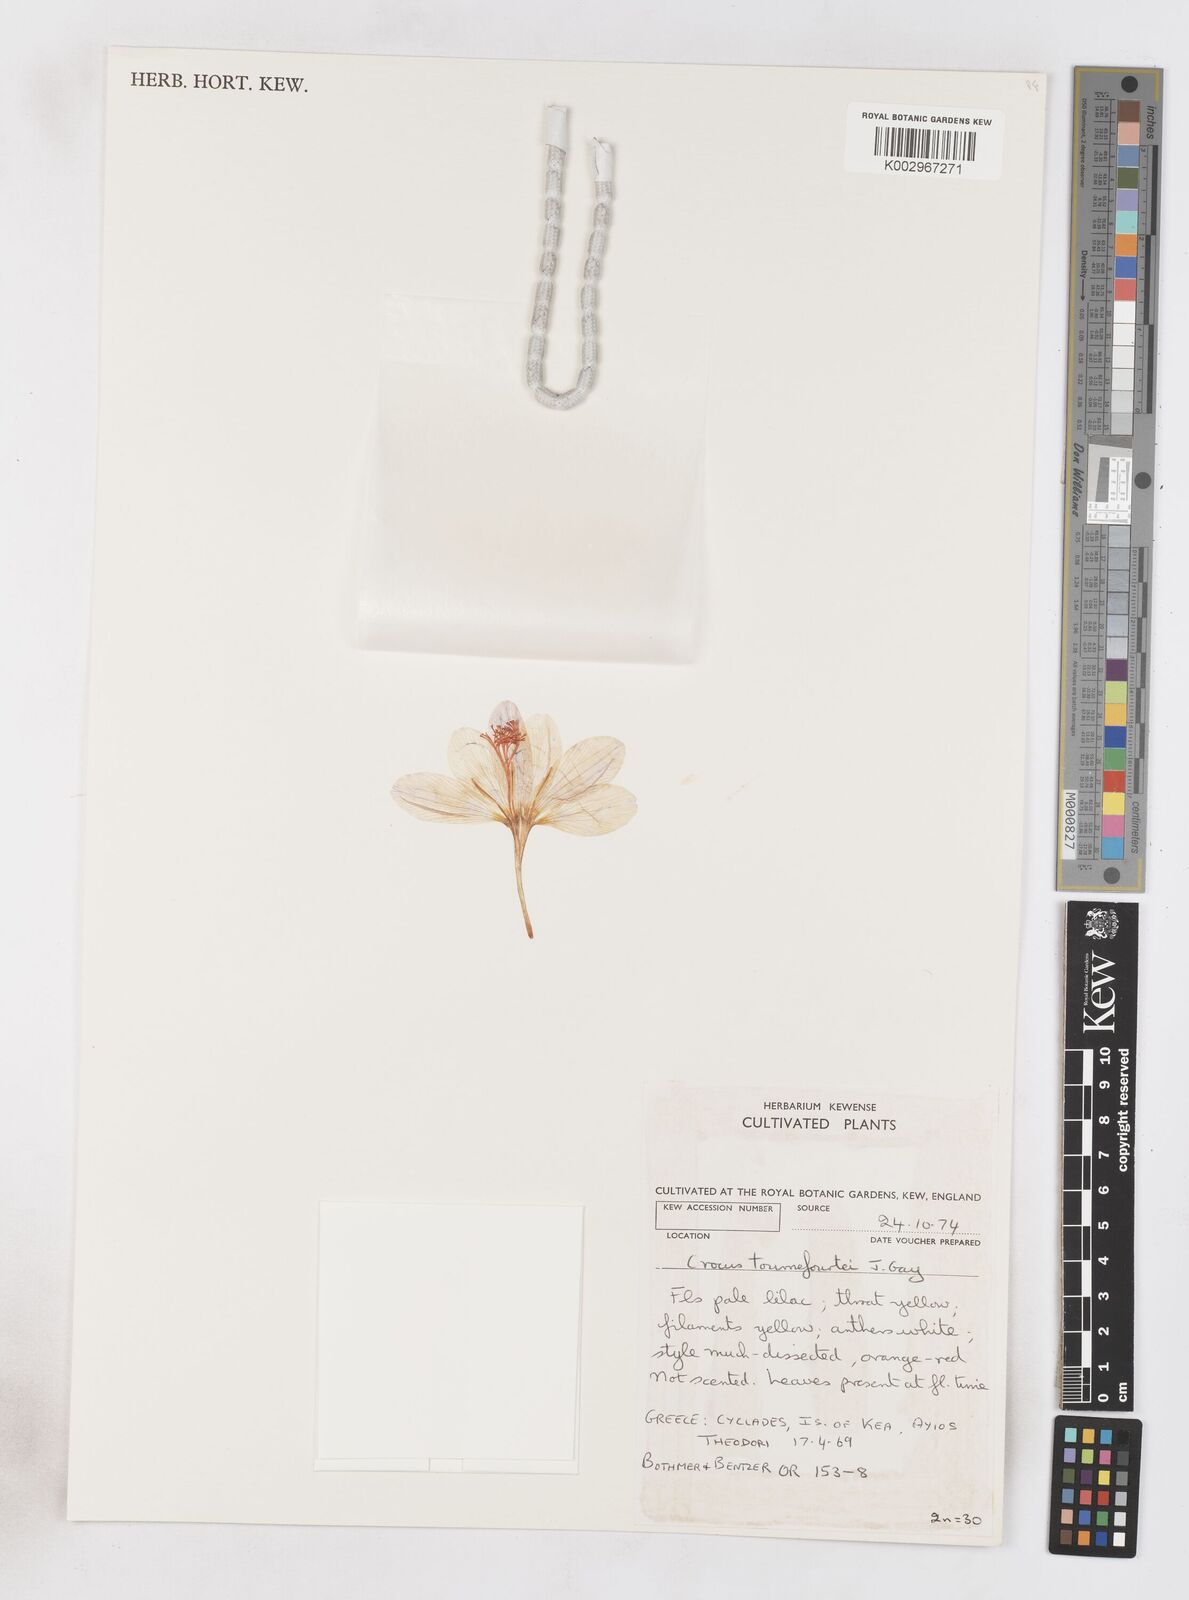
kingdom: Plantae
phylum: Tracheophyta
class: Liliopsida
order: Asparagales
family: Iridaceae
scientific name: Iridaceae
